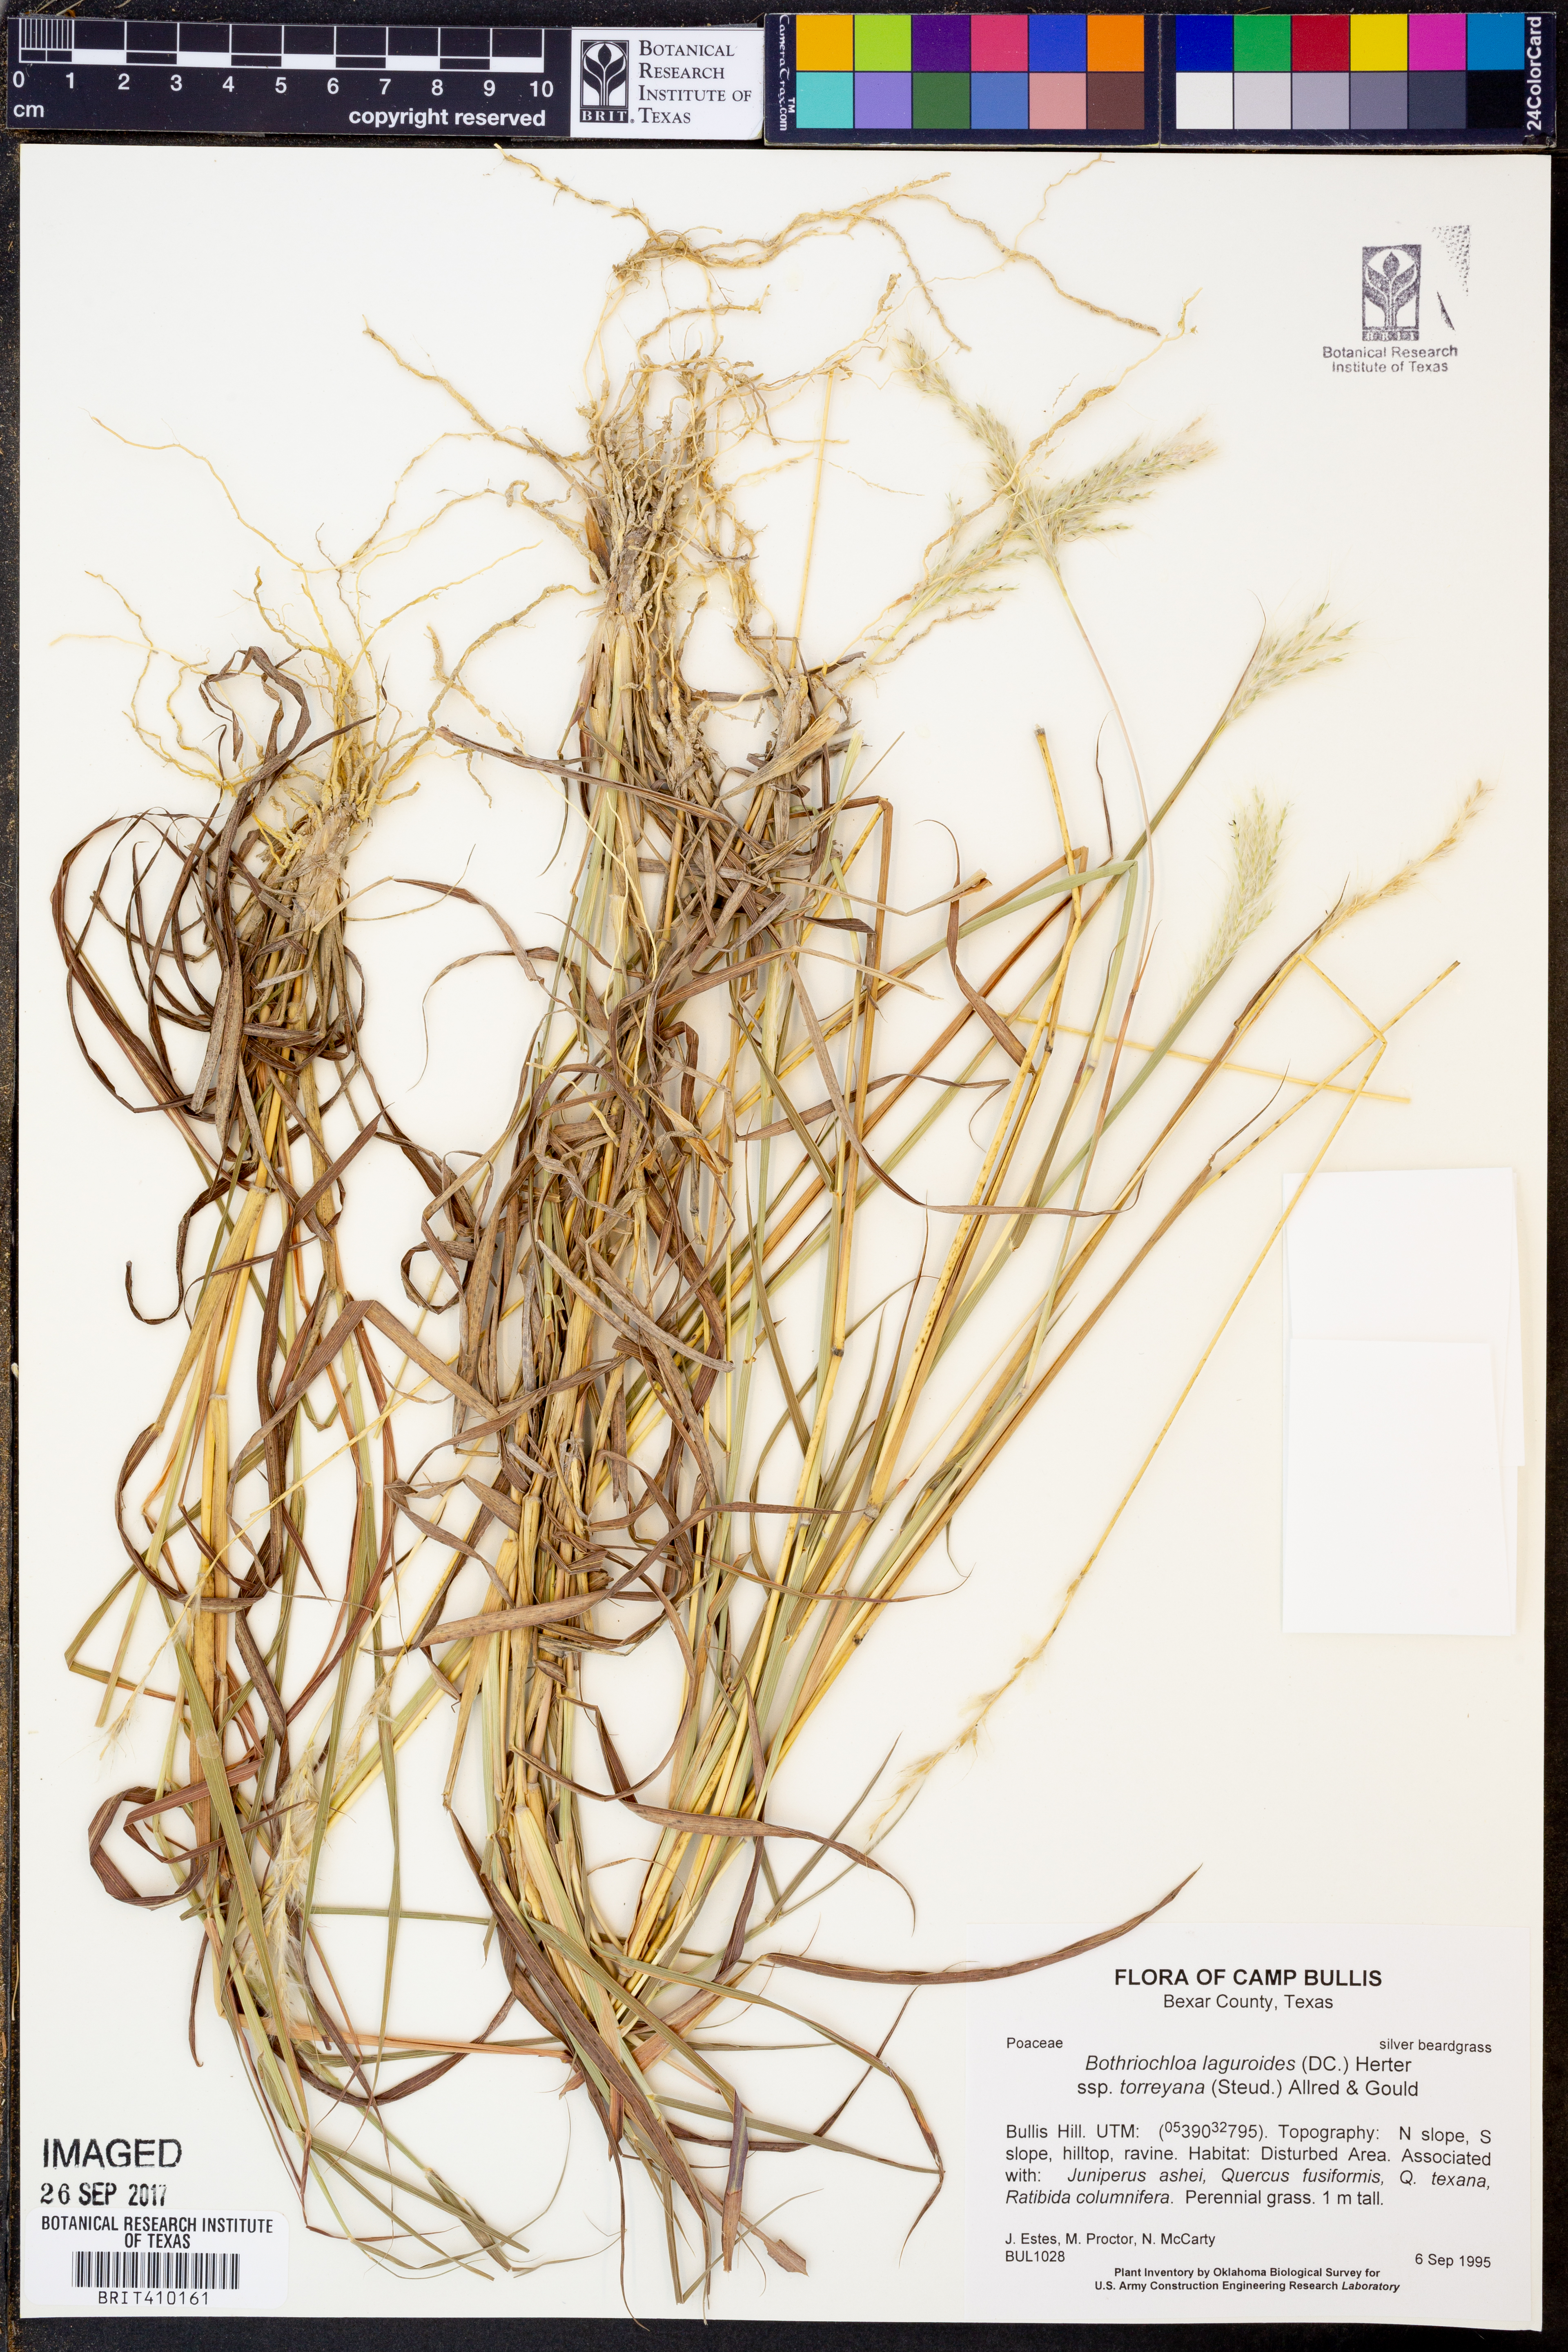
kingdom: Plantae
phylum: Tracheophyta
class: Liliopsida
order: Poales
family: Poaceae
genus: Bothriochloa
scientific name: Bothriochloa torreyana
